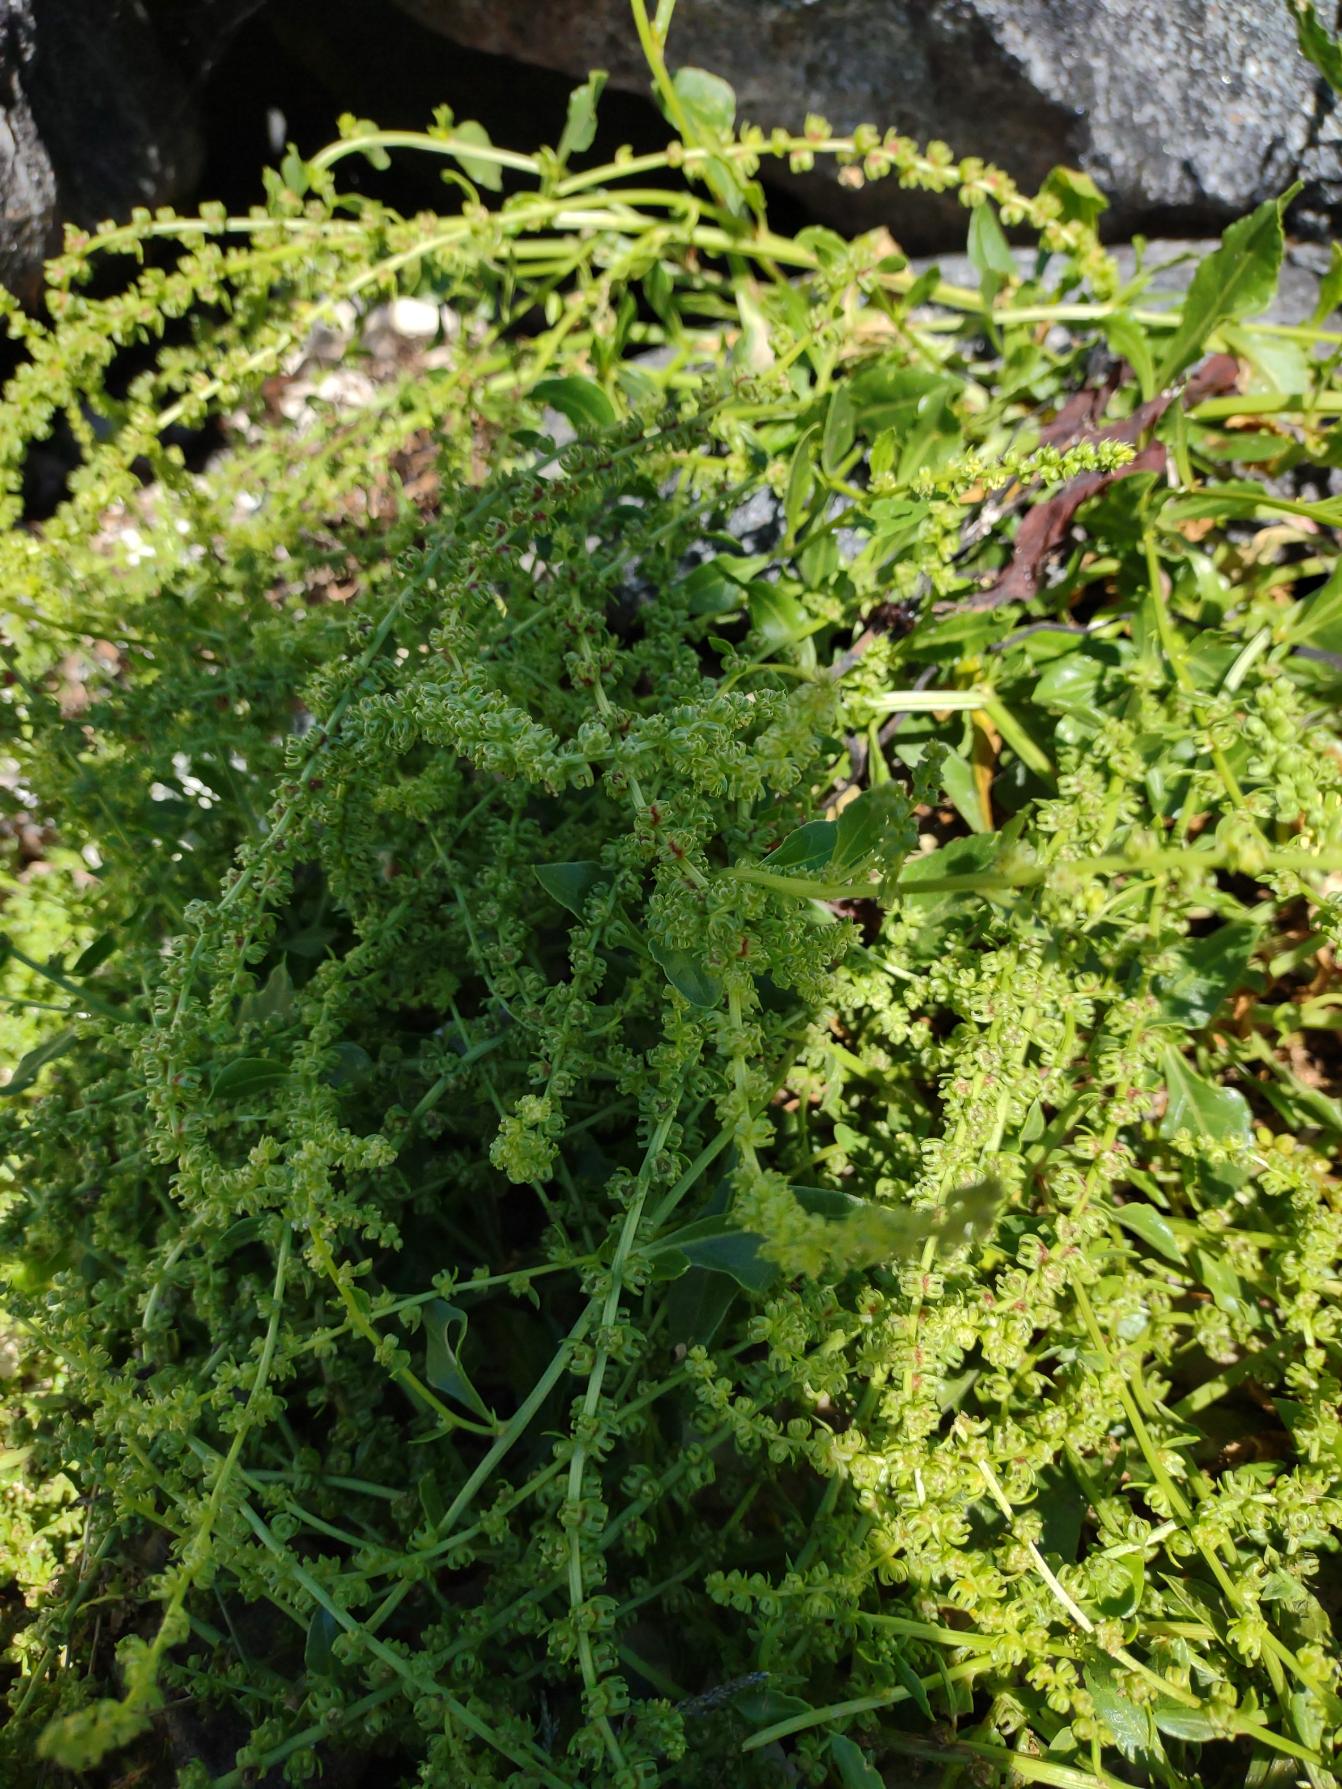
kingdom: Plantae
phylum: Tracheophyta
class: Magnoliopsida
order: Caryophyllales
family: Amaranthaceae
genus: Beta
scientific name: Beta maritima
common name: Strand-bede
